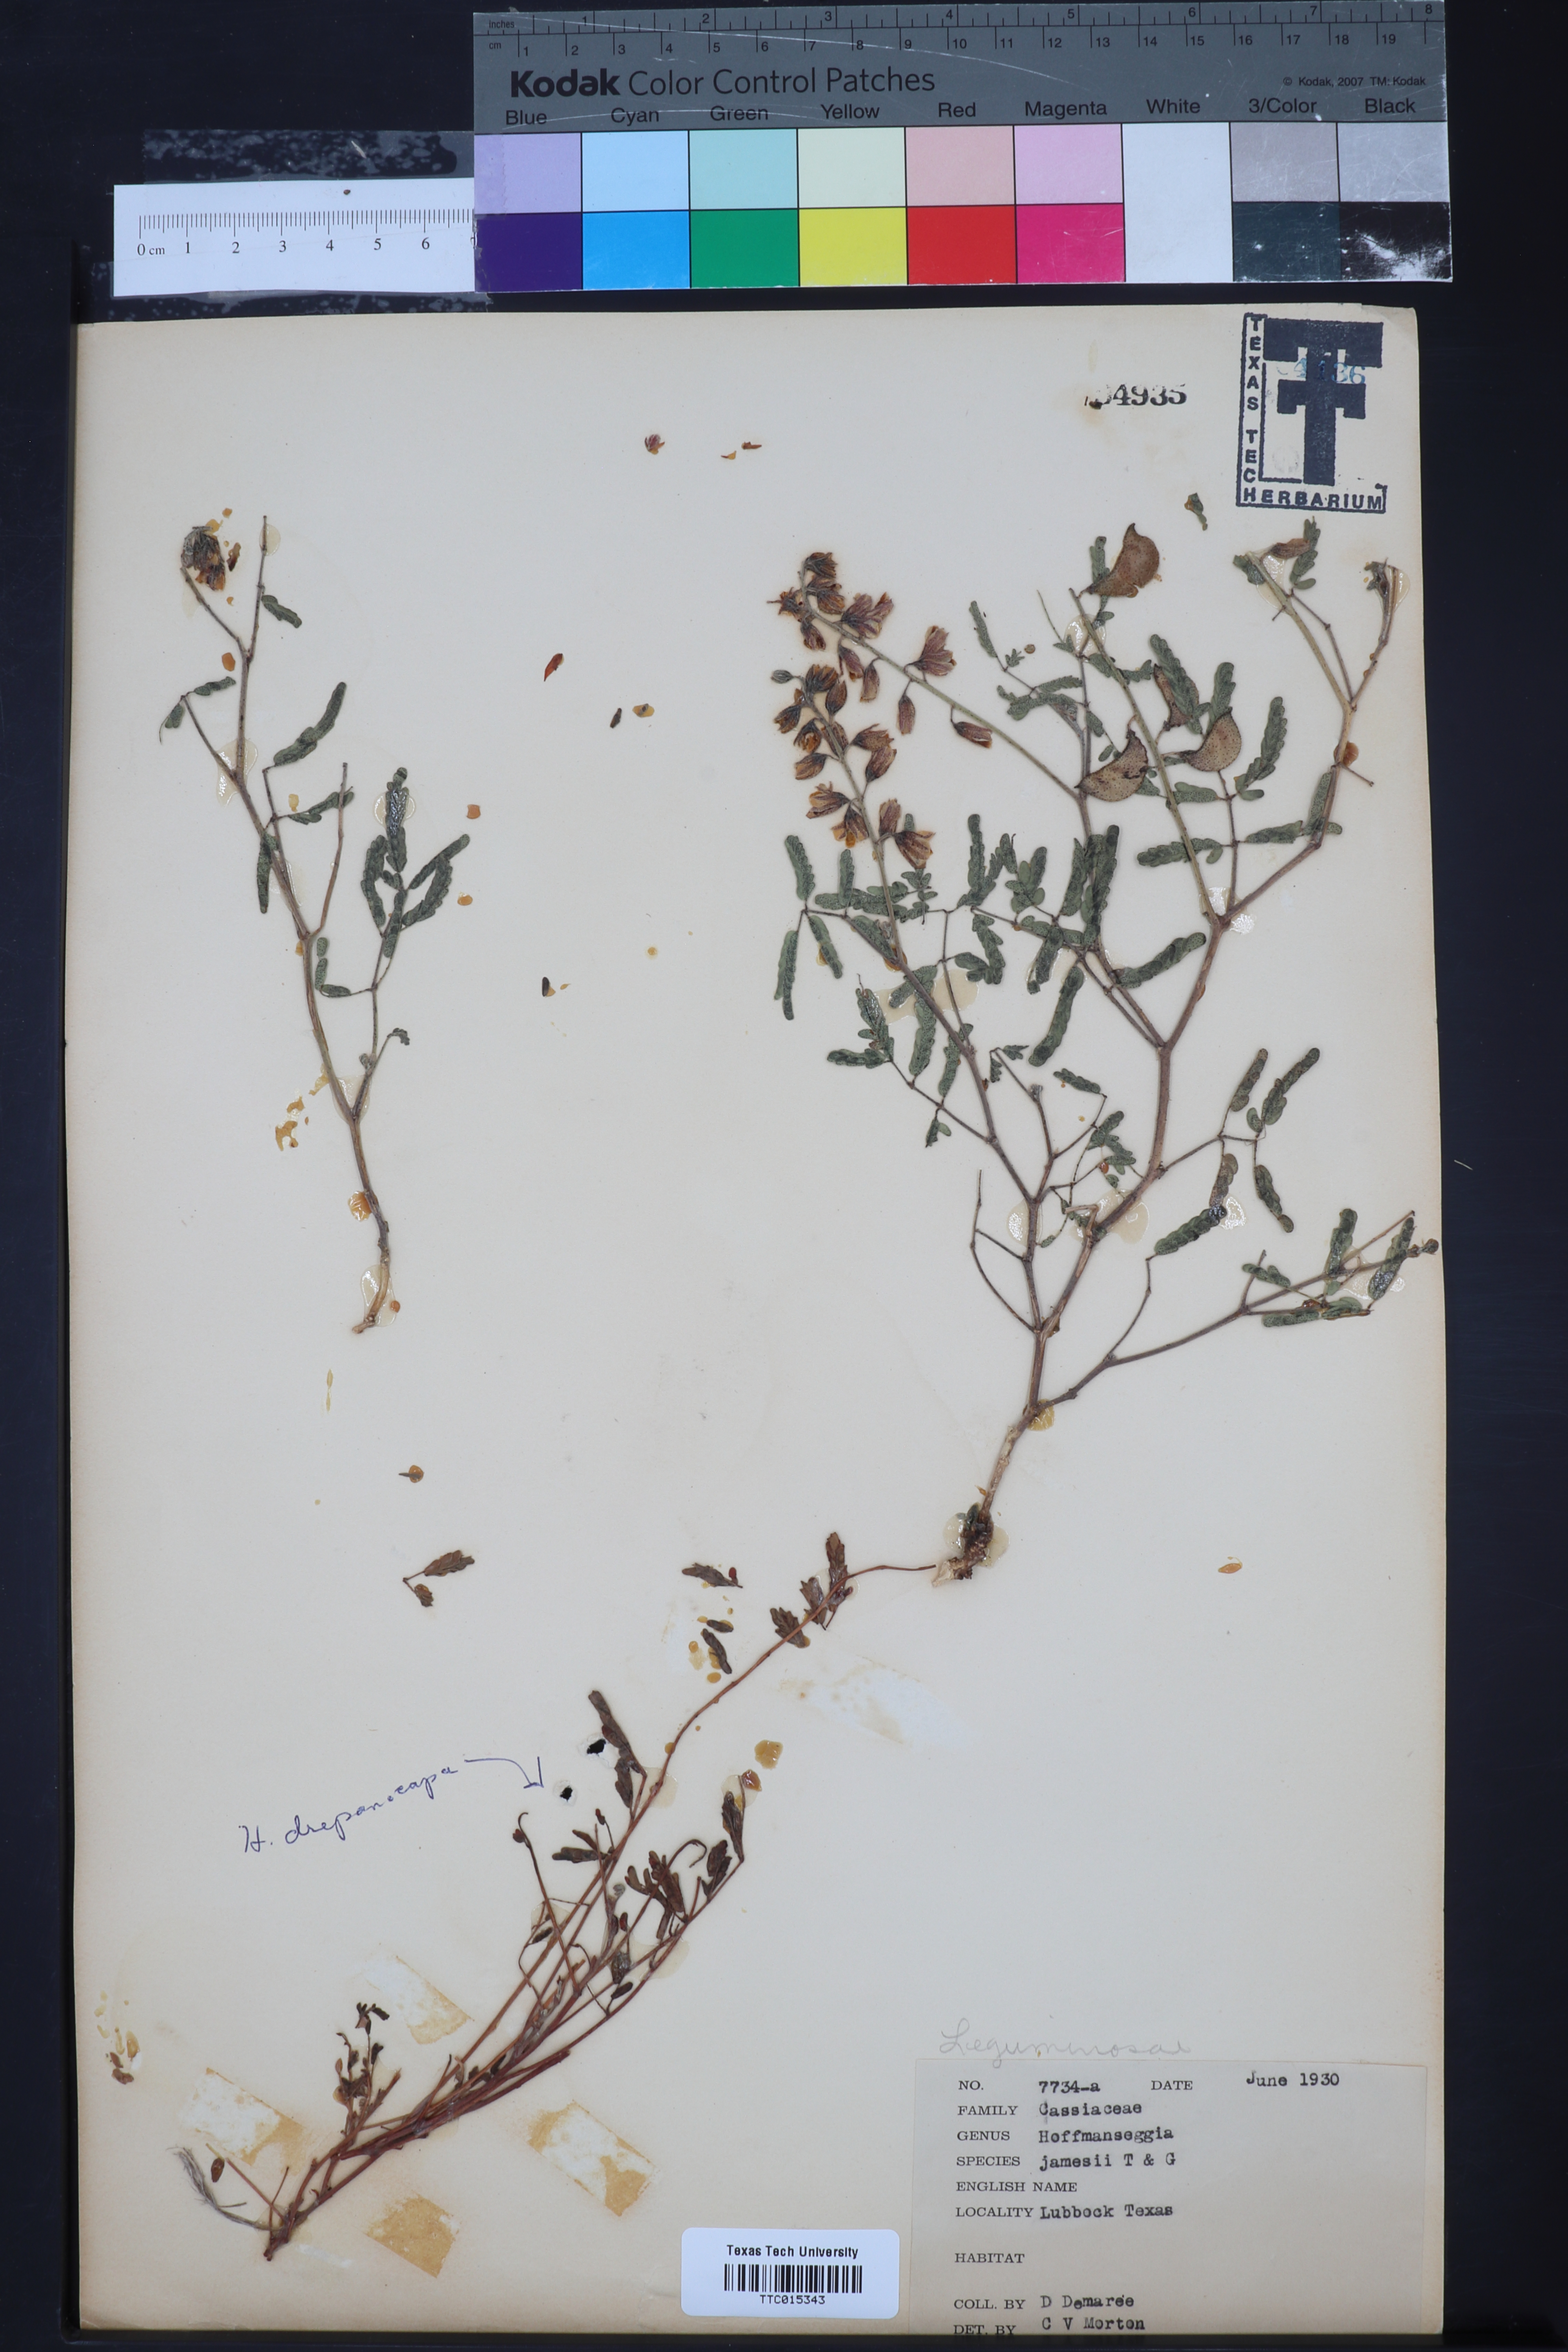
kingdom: Plantae
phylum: Tracheophyta
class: Magnoliopsida
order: Fabales
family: Fabaceae
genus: Pomaria
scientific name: Pomaria jamesii
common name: James' caesalpinia
